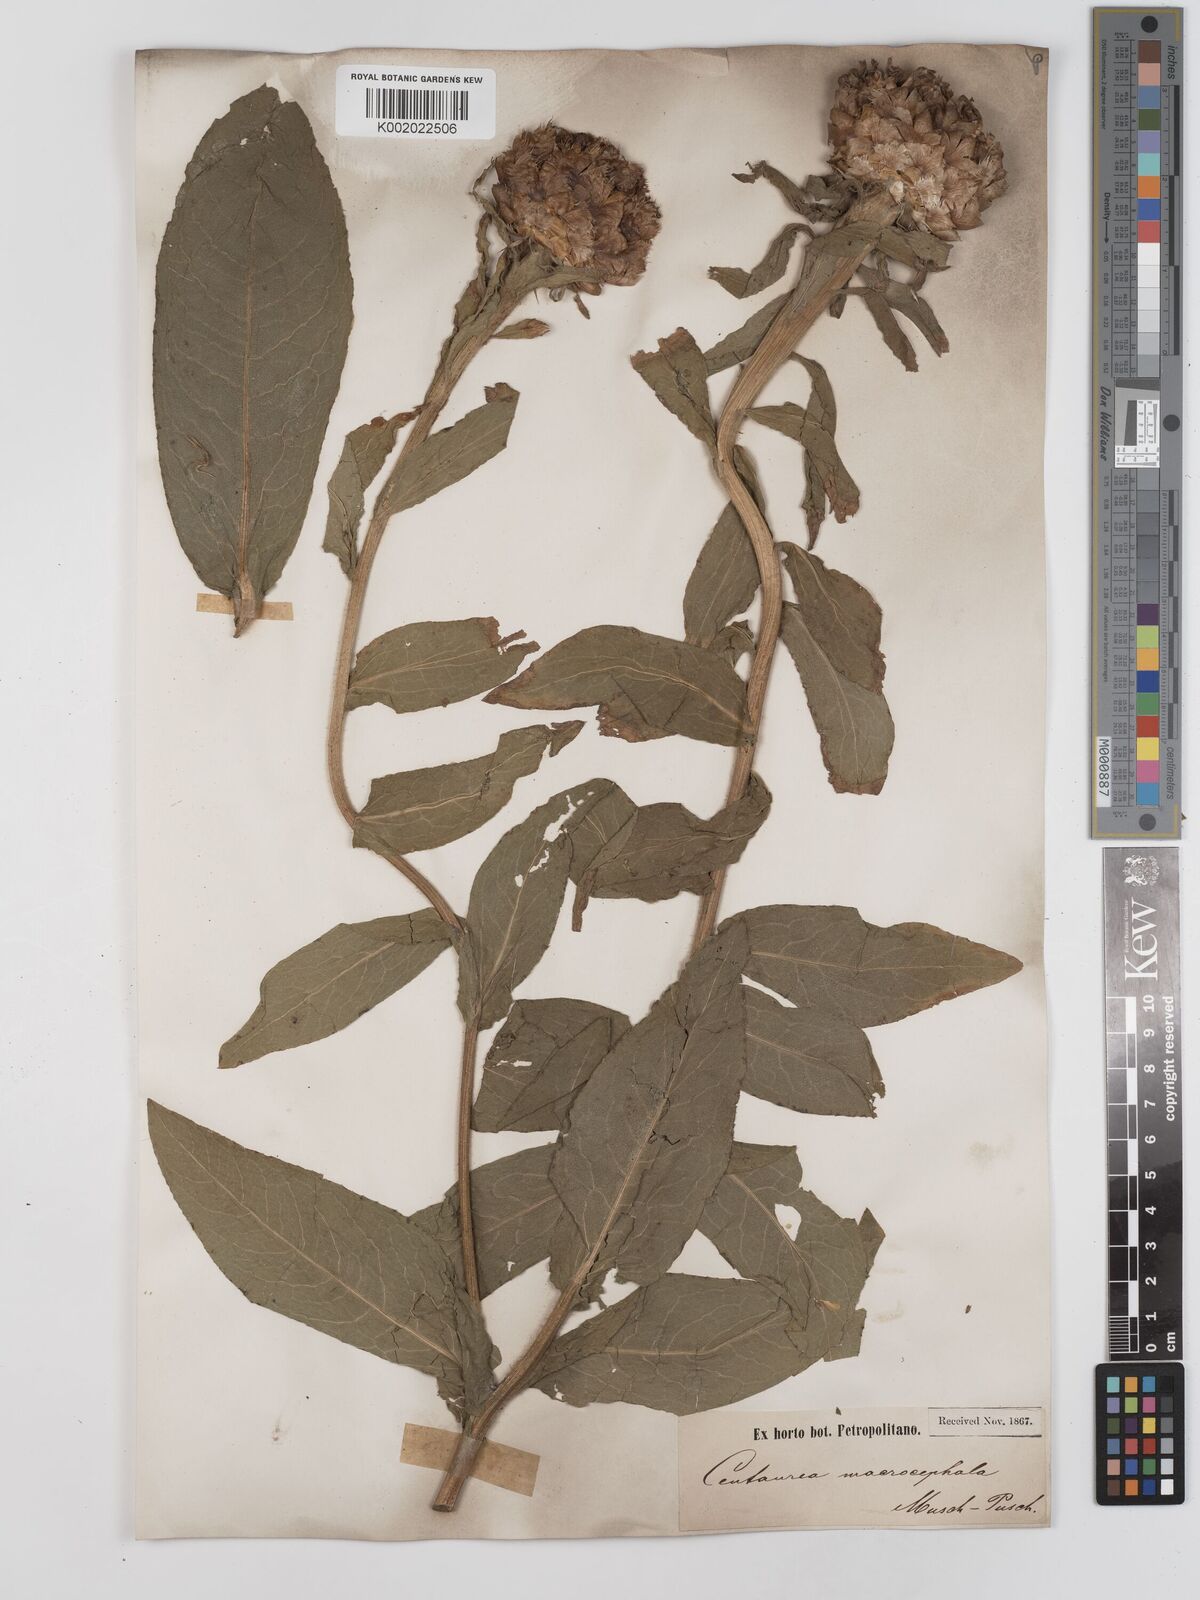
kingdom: Plantae
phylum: Tracheophyta
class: Magnoliopsida
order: Asterales
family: Asteraceae
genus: Centaurea
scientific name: Centaurea macrocephala
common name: Big-head knapweed
